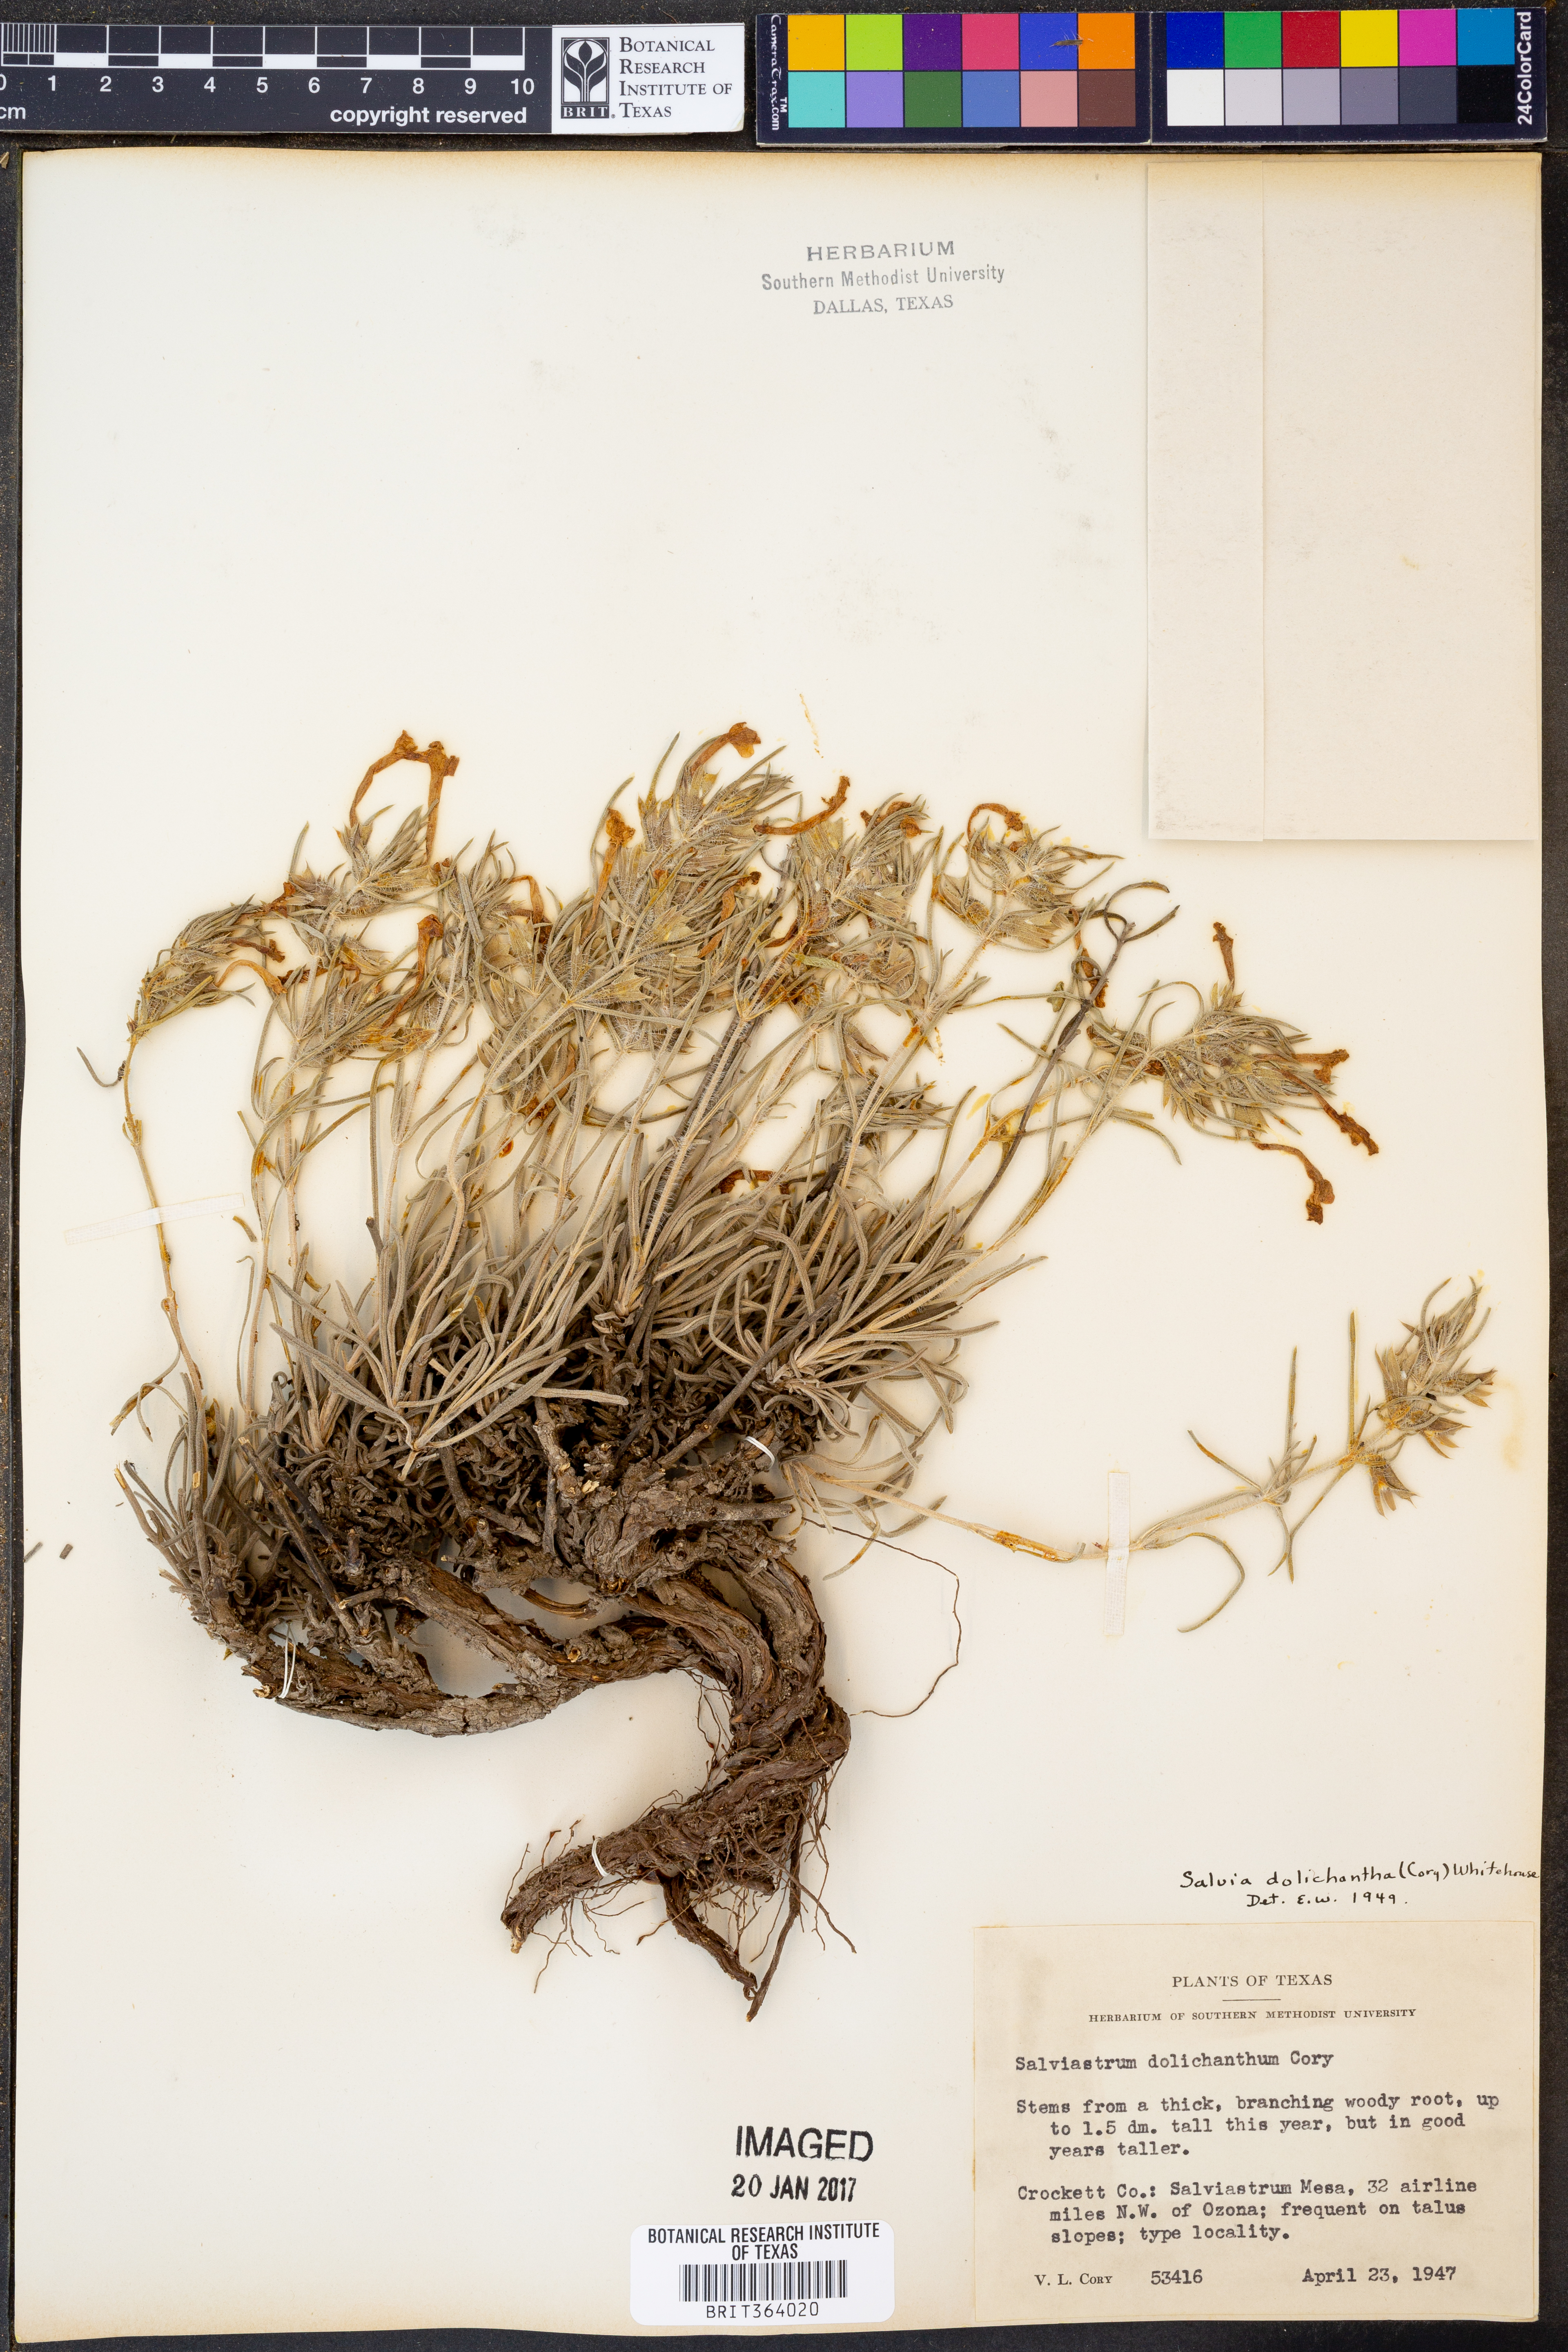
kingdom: Plantae
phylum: Tracheophyta
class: Magnoliopsida
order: Lamiales
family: Lamiaceae
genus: Salvia
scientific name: Salvia whitehousei
